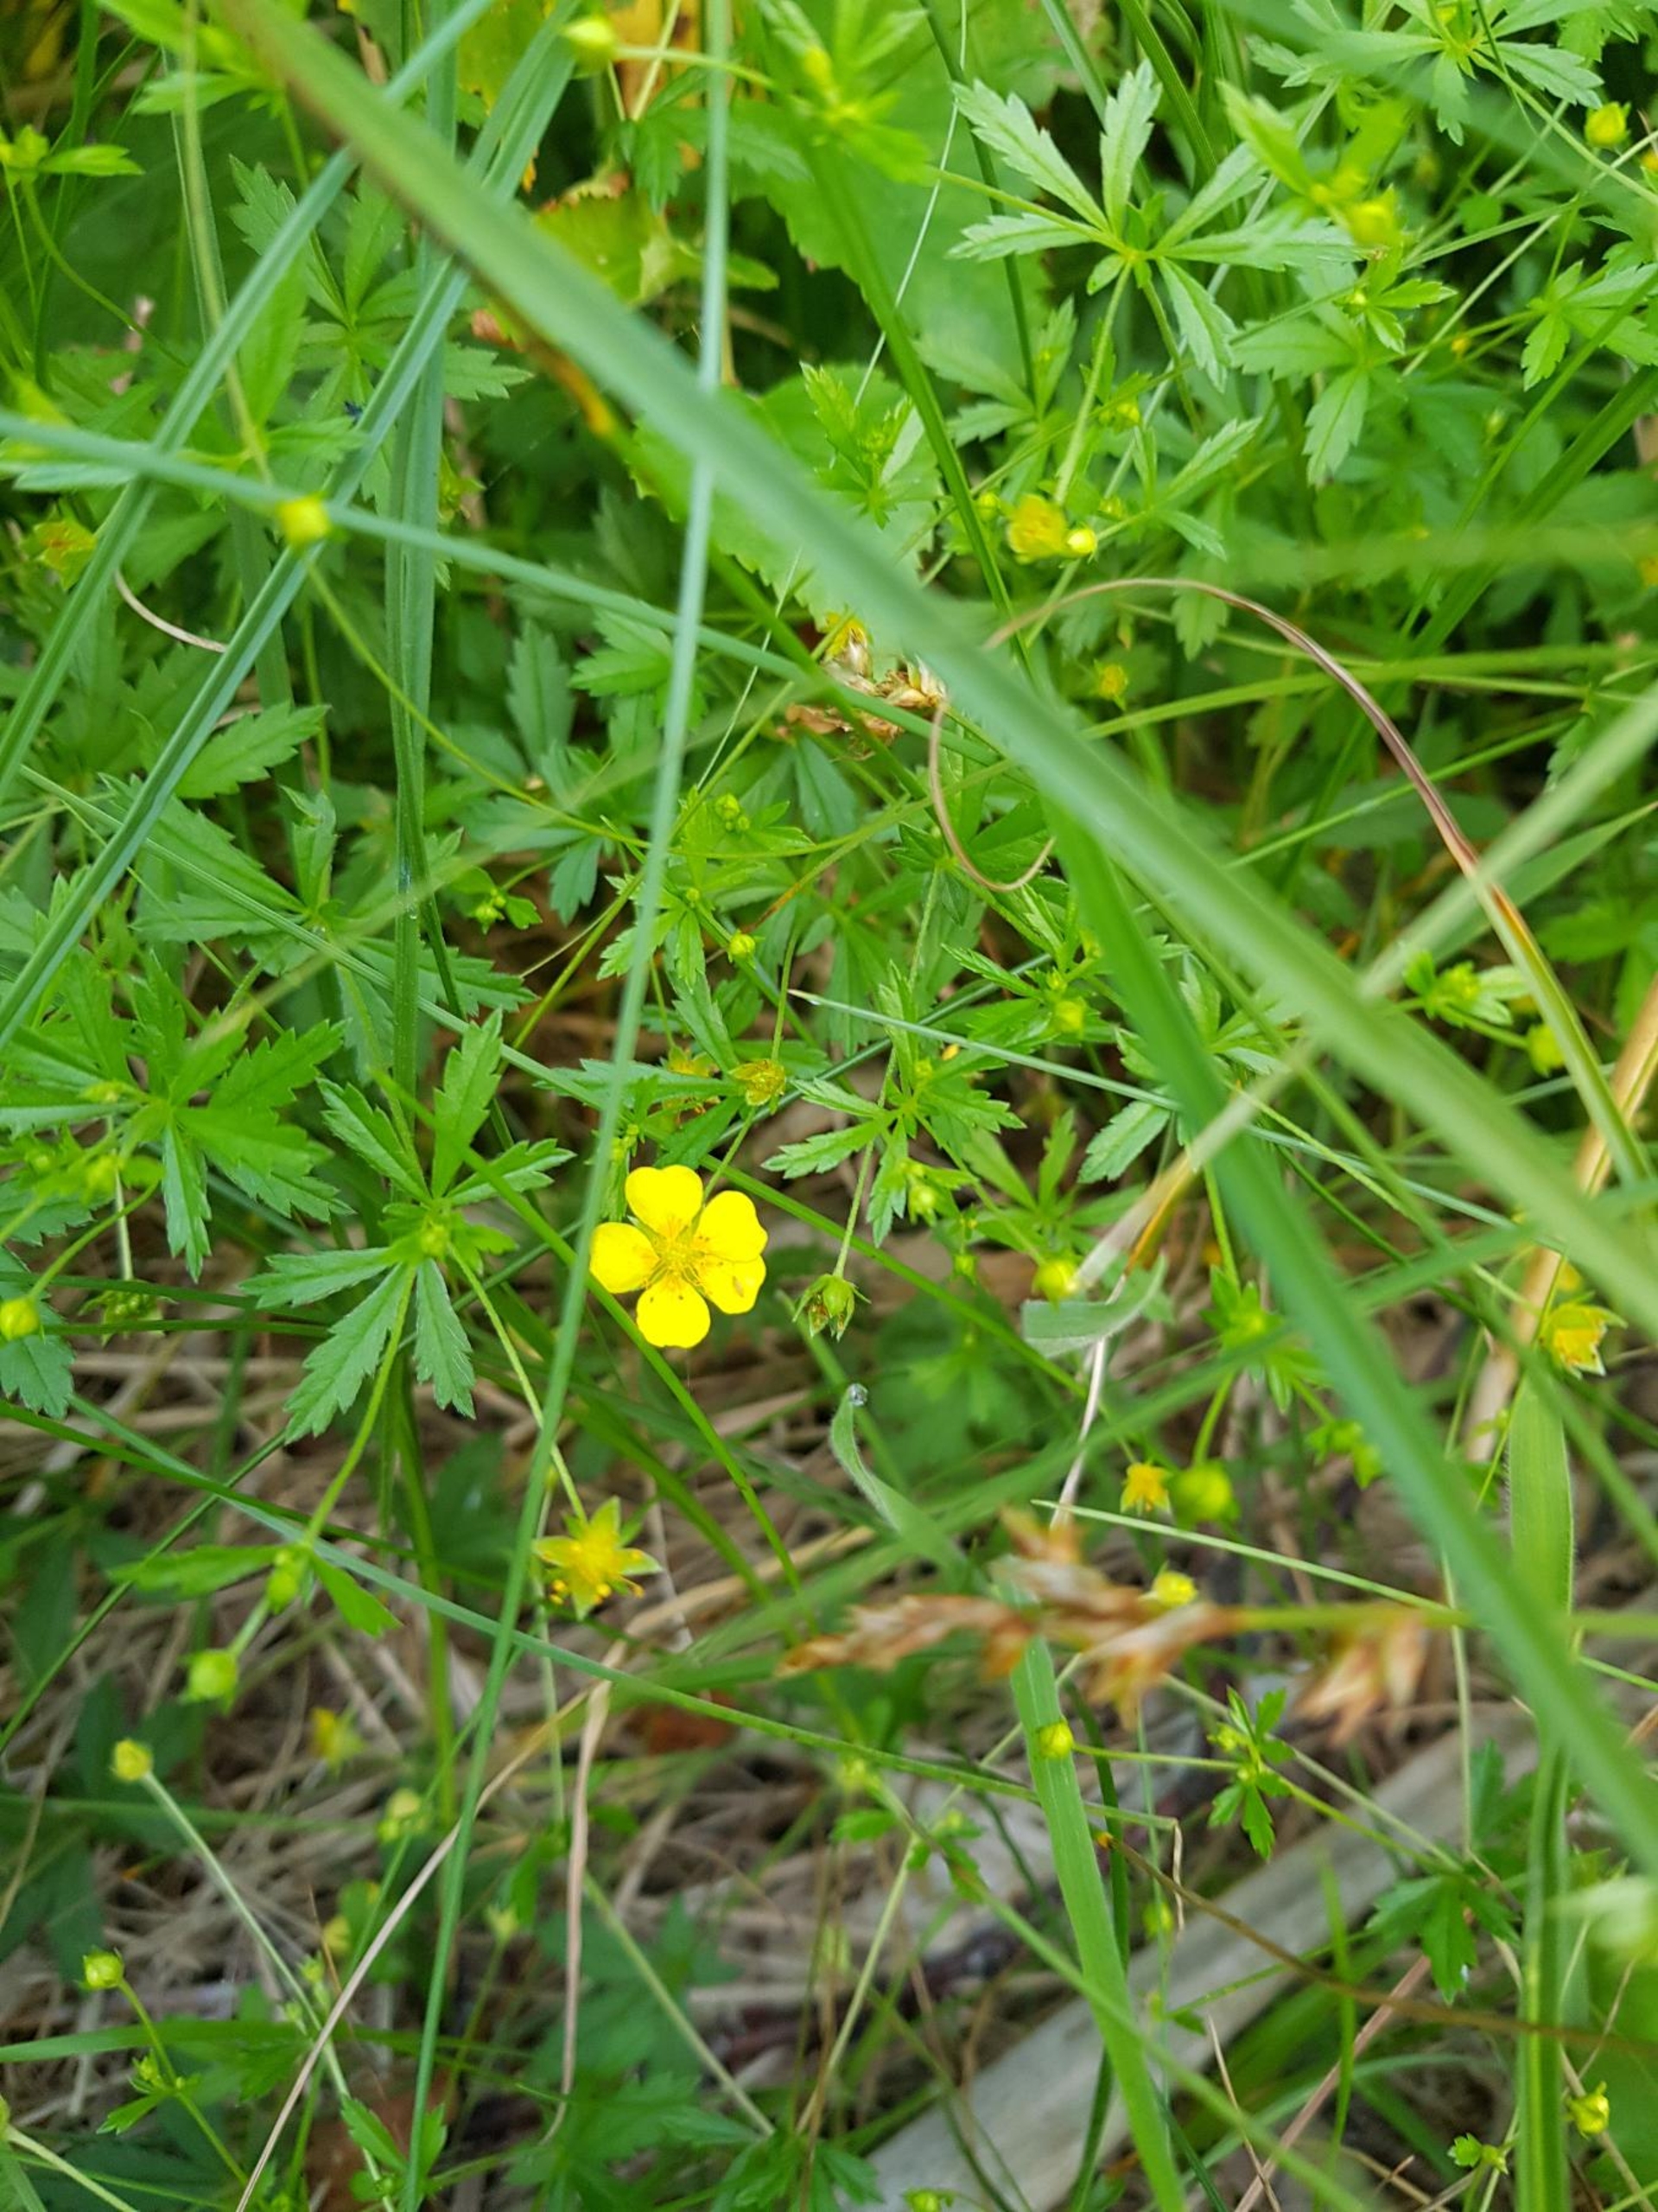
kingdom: Plantae
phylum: Tracheophyta
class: Magnoliopsida
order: Rosales
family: Rosaceae
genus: Potentilla
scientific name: Potentilla erecta
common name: Tormentil
